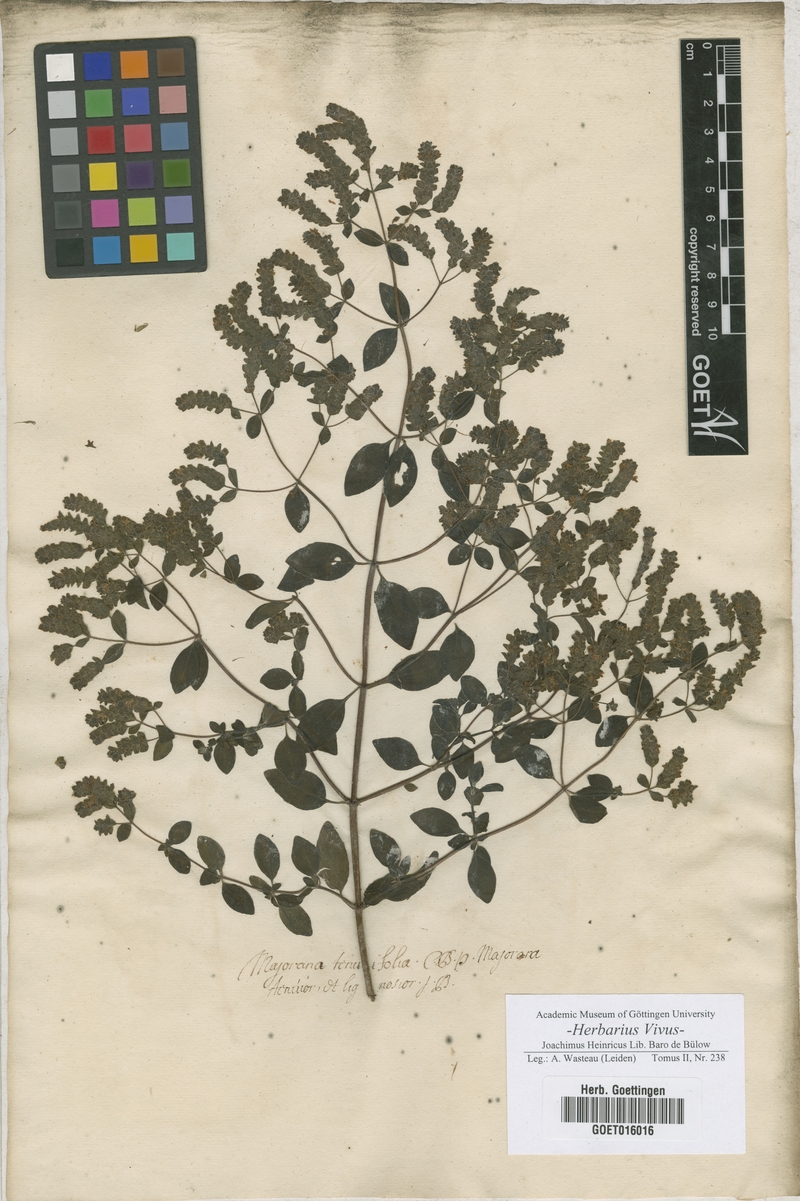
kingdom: Plantae
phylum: Tracheophyta
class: Magnoliopsida
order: Lamiales
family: Lamiaceae
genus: Origanum
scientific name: Origanum majorana
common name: Sweet marjoram
